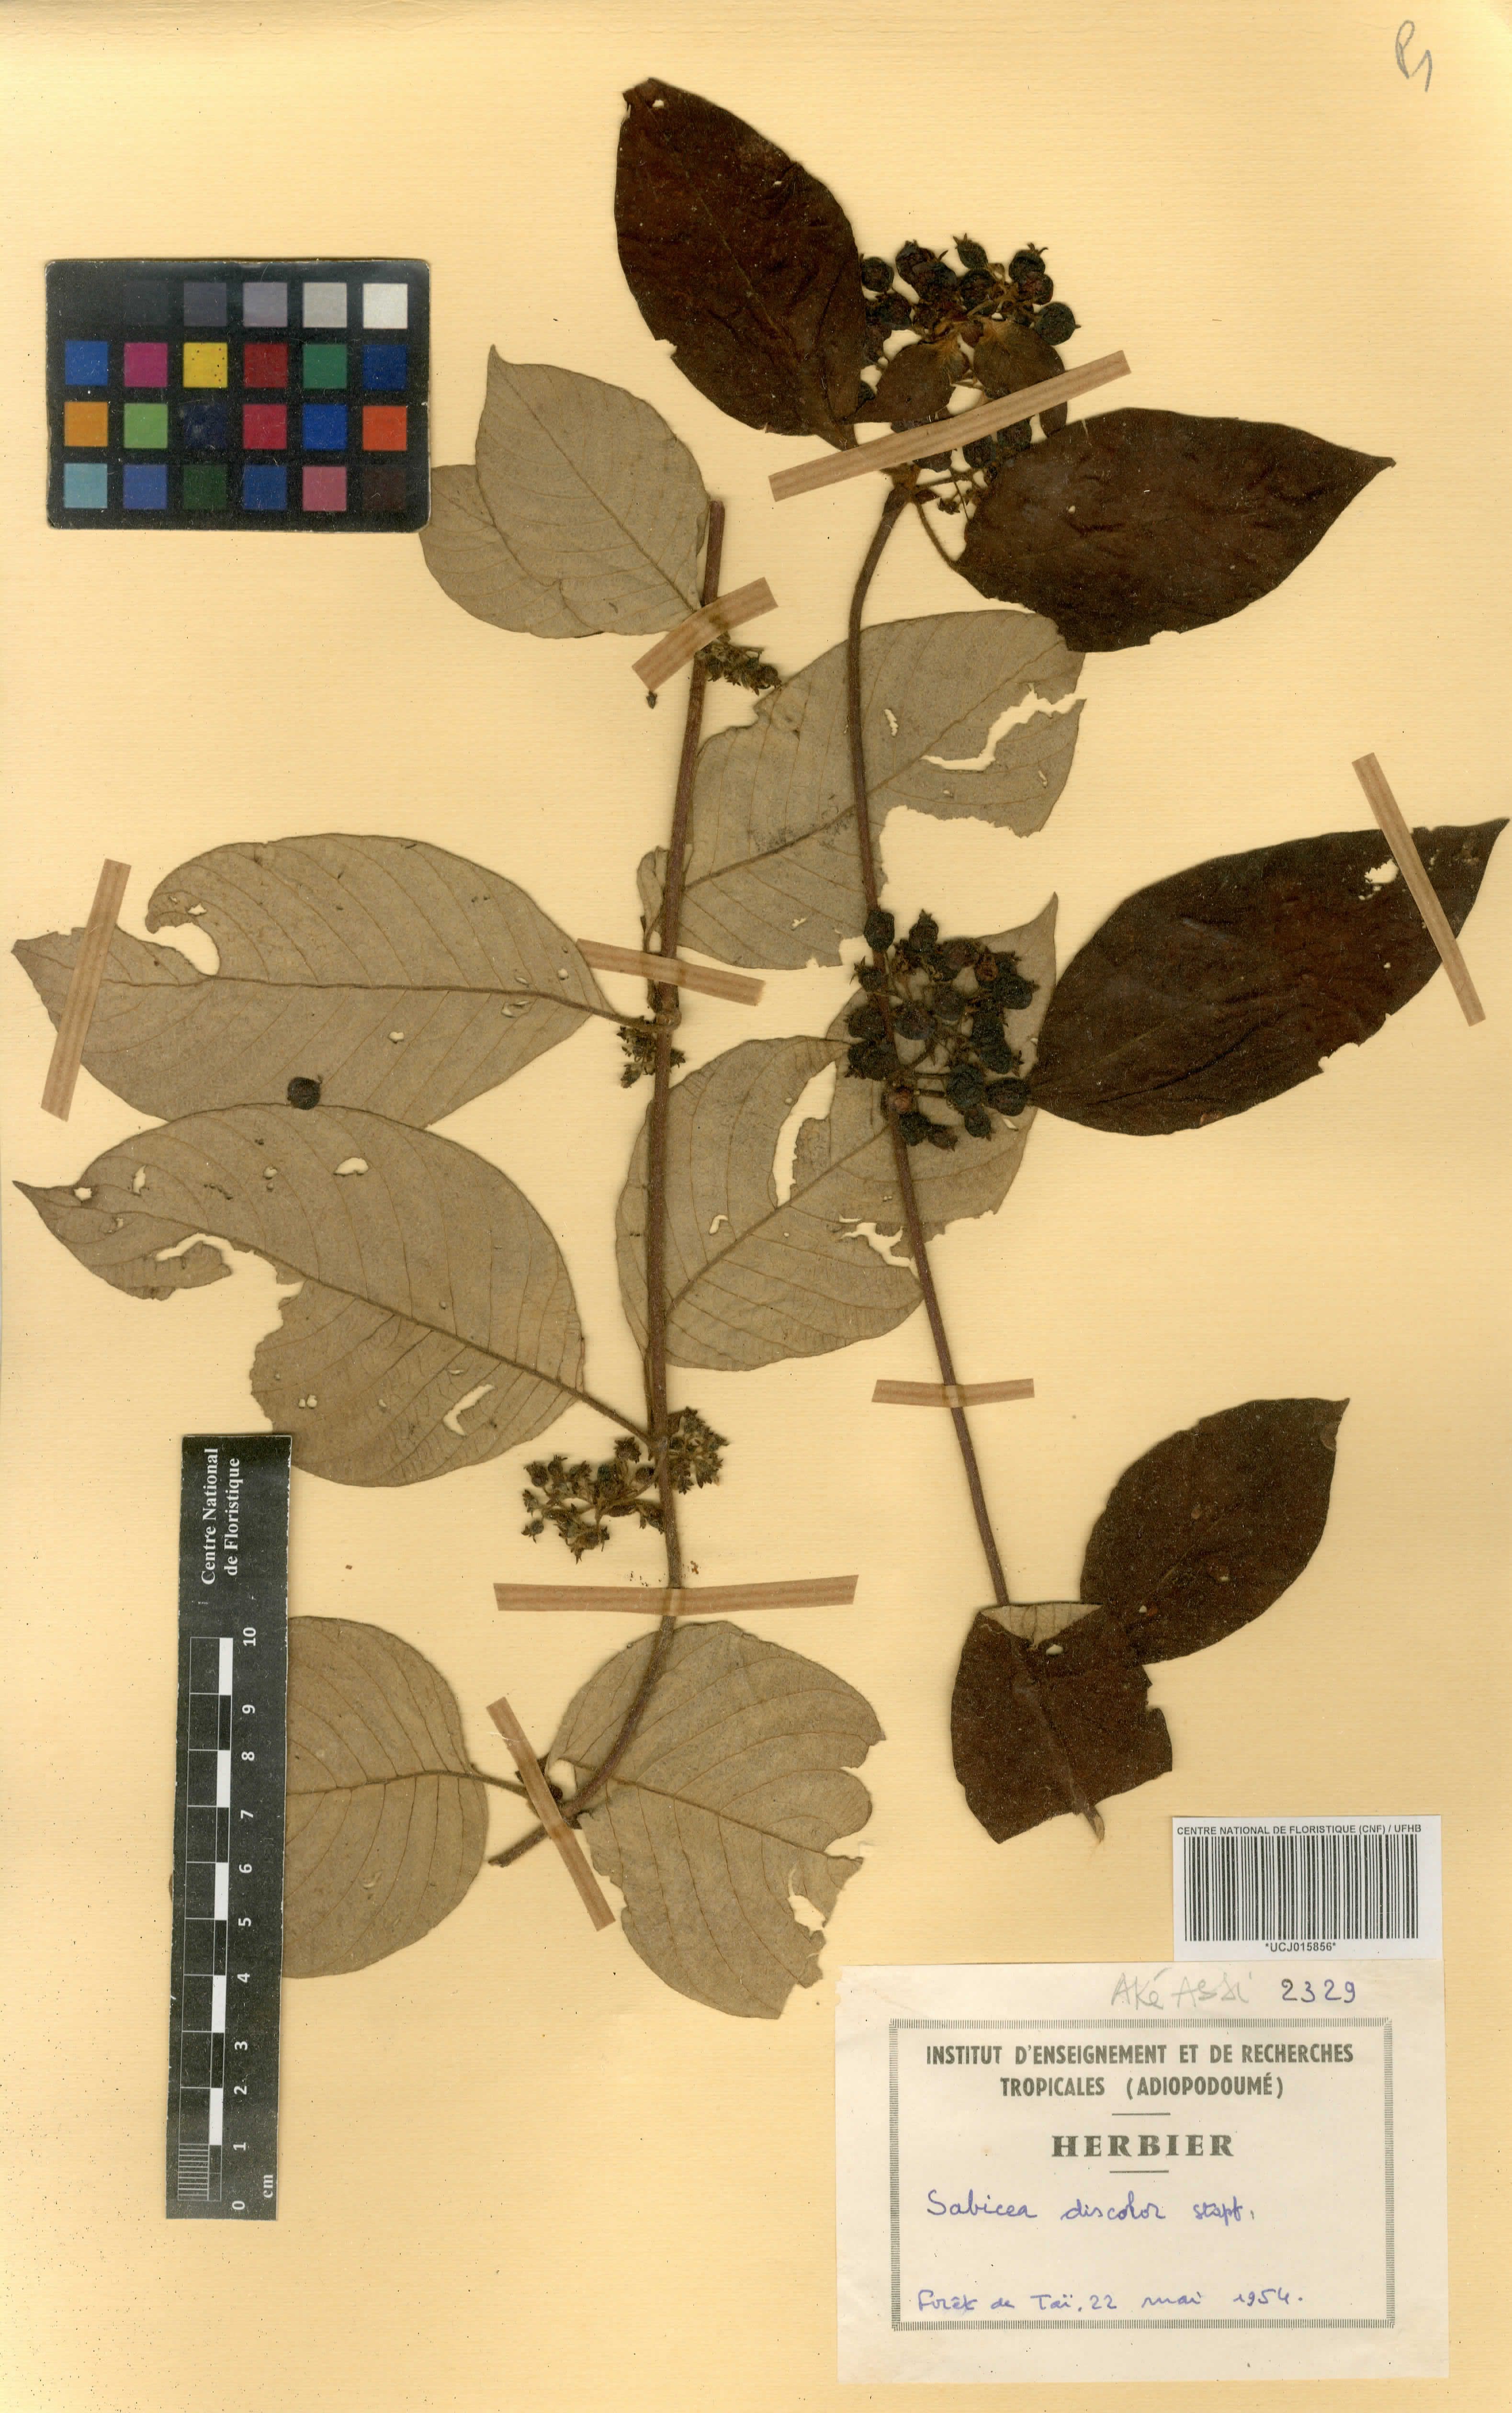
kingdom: Plantae
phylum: Tracheophyta
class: Magnoliopsida
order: Gentianales
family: Rubiaceae
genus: Sabicea
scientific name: Sabicea discolor
